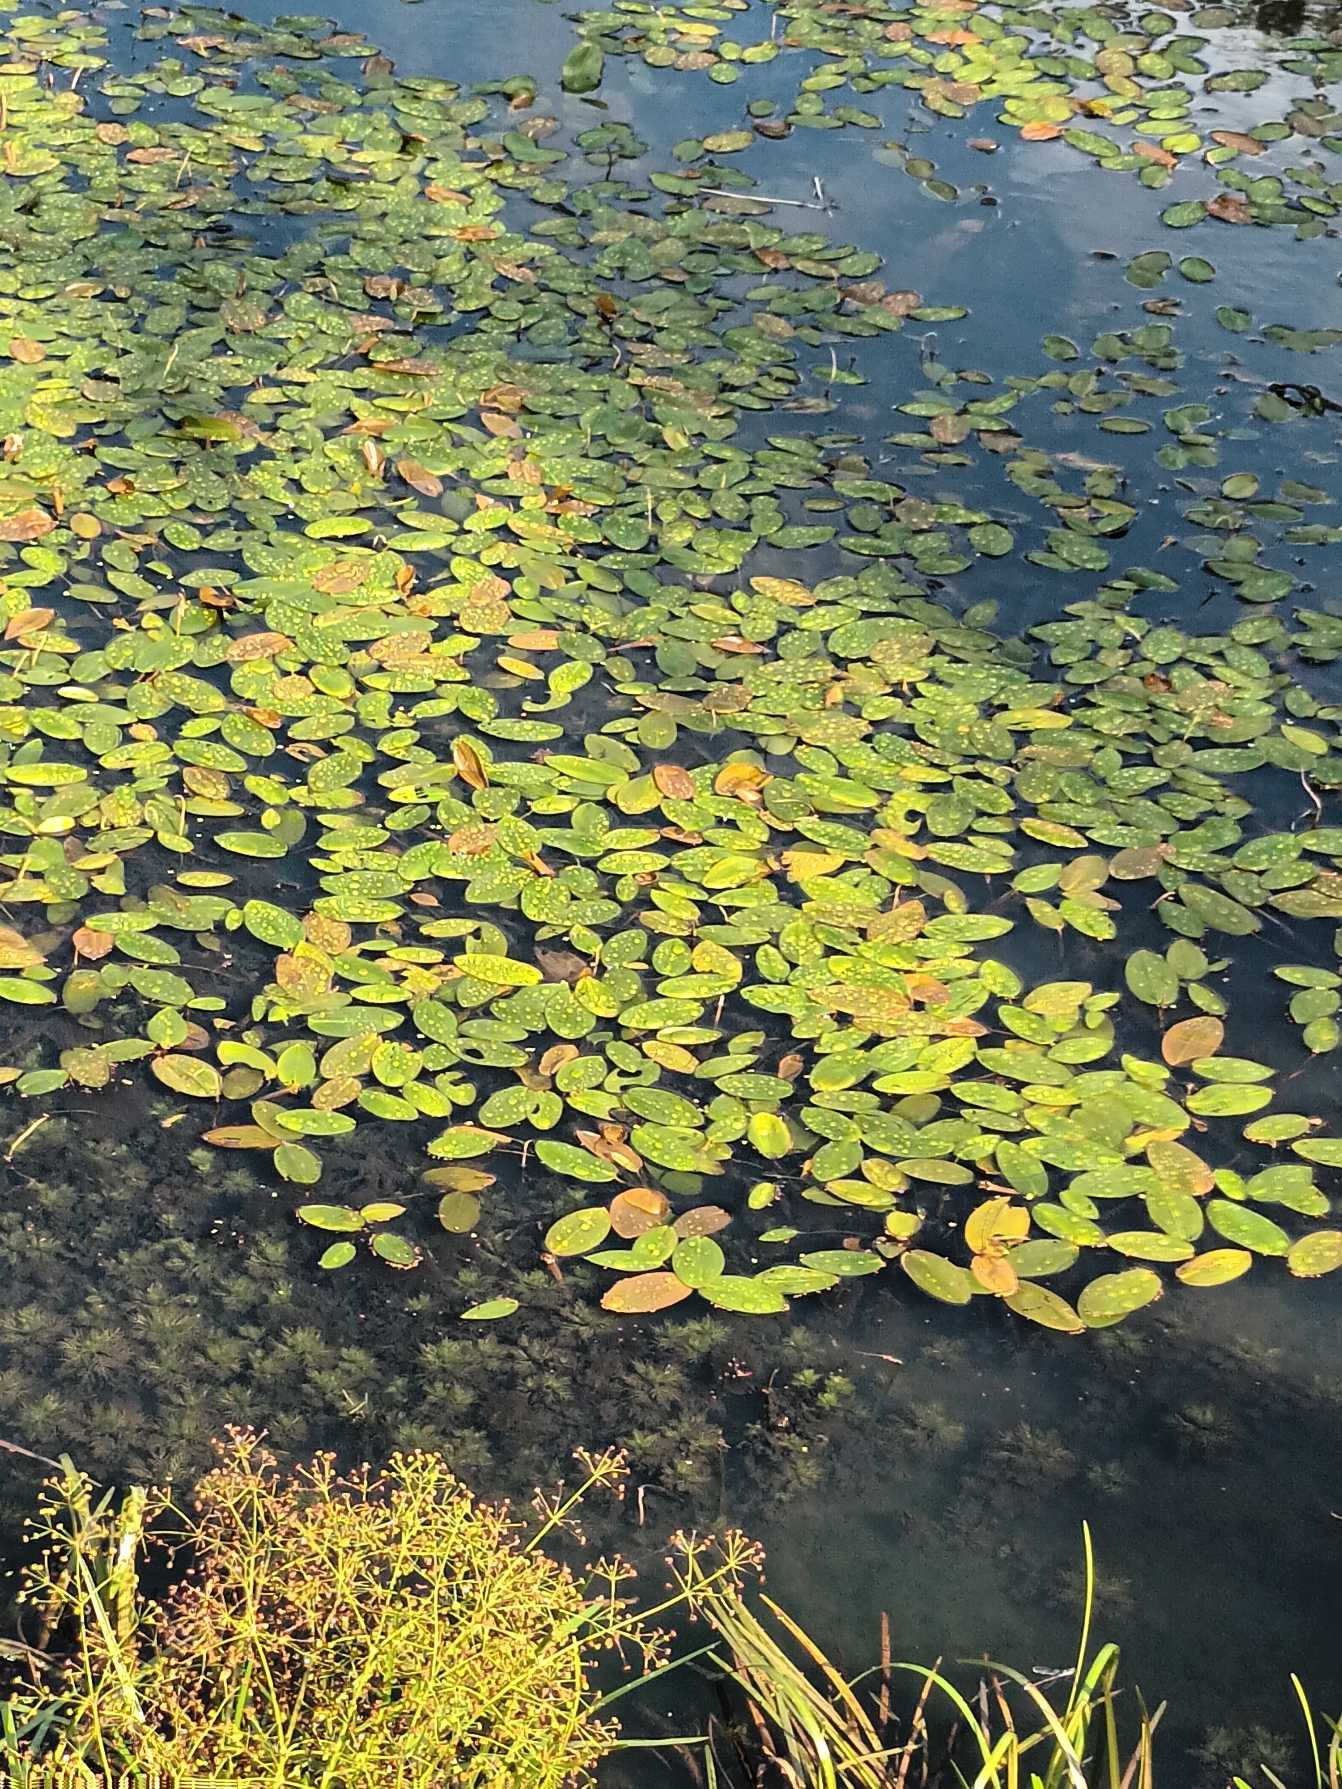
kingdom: Plantae
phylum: Tracheophyta
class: Liliopsida
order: Alismatales
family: Potamogetonaceae
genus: Potamogeton
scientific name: Potamogeton natans
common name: Svømmende vandaks
